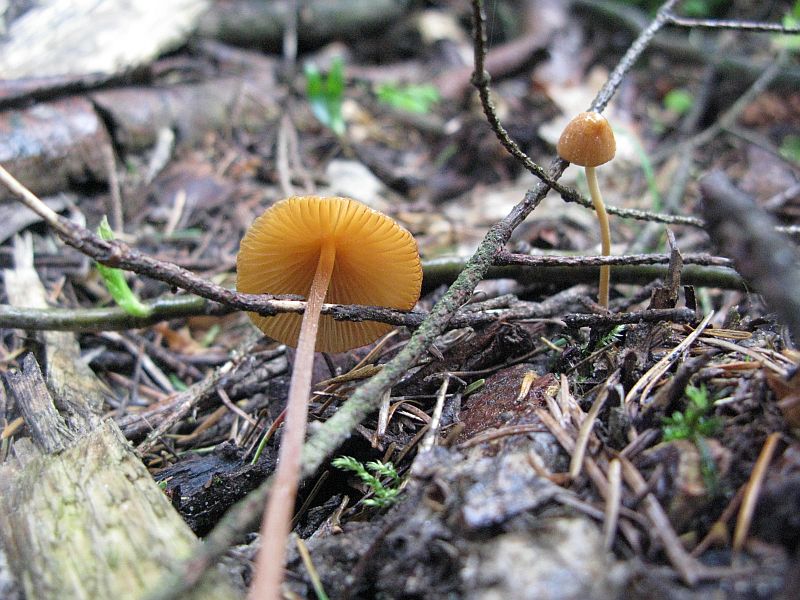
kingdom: Fungi
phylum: Basidiomycota
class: Agaricomycetes
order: Agaricales
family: Bolbitiaceae
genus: Conocybe
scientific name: Conocybe subpubescens
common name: krat-keglehat
